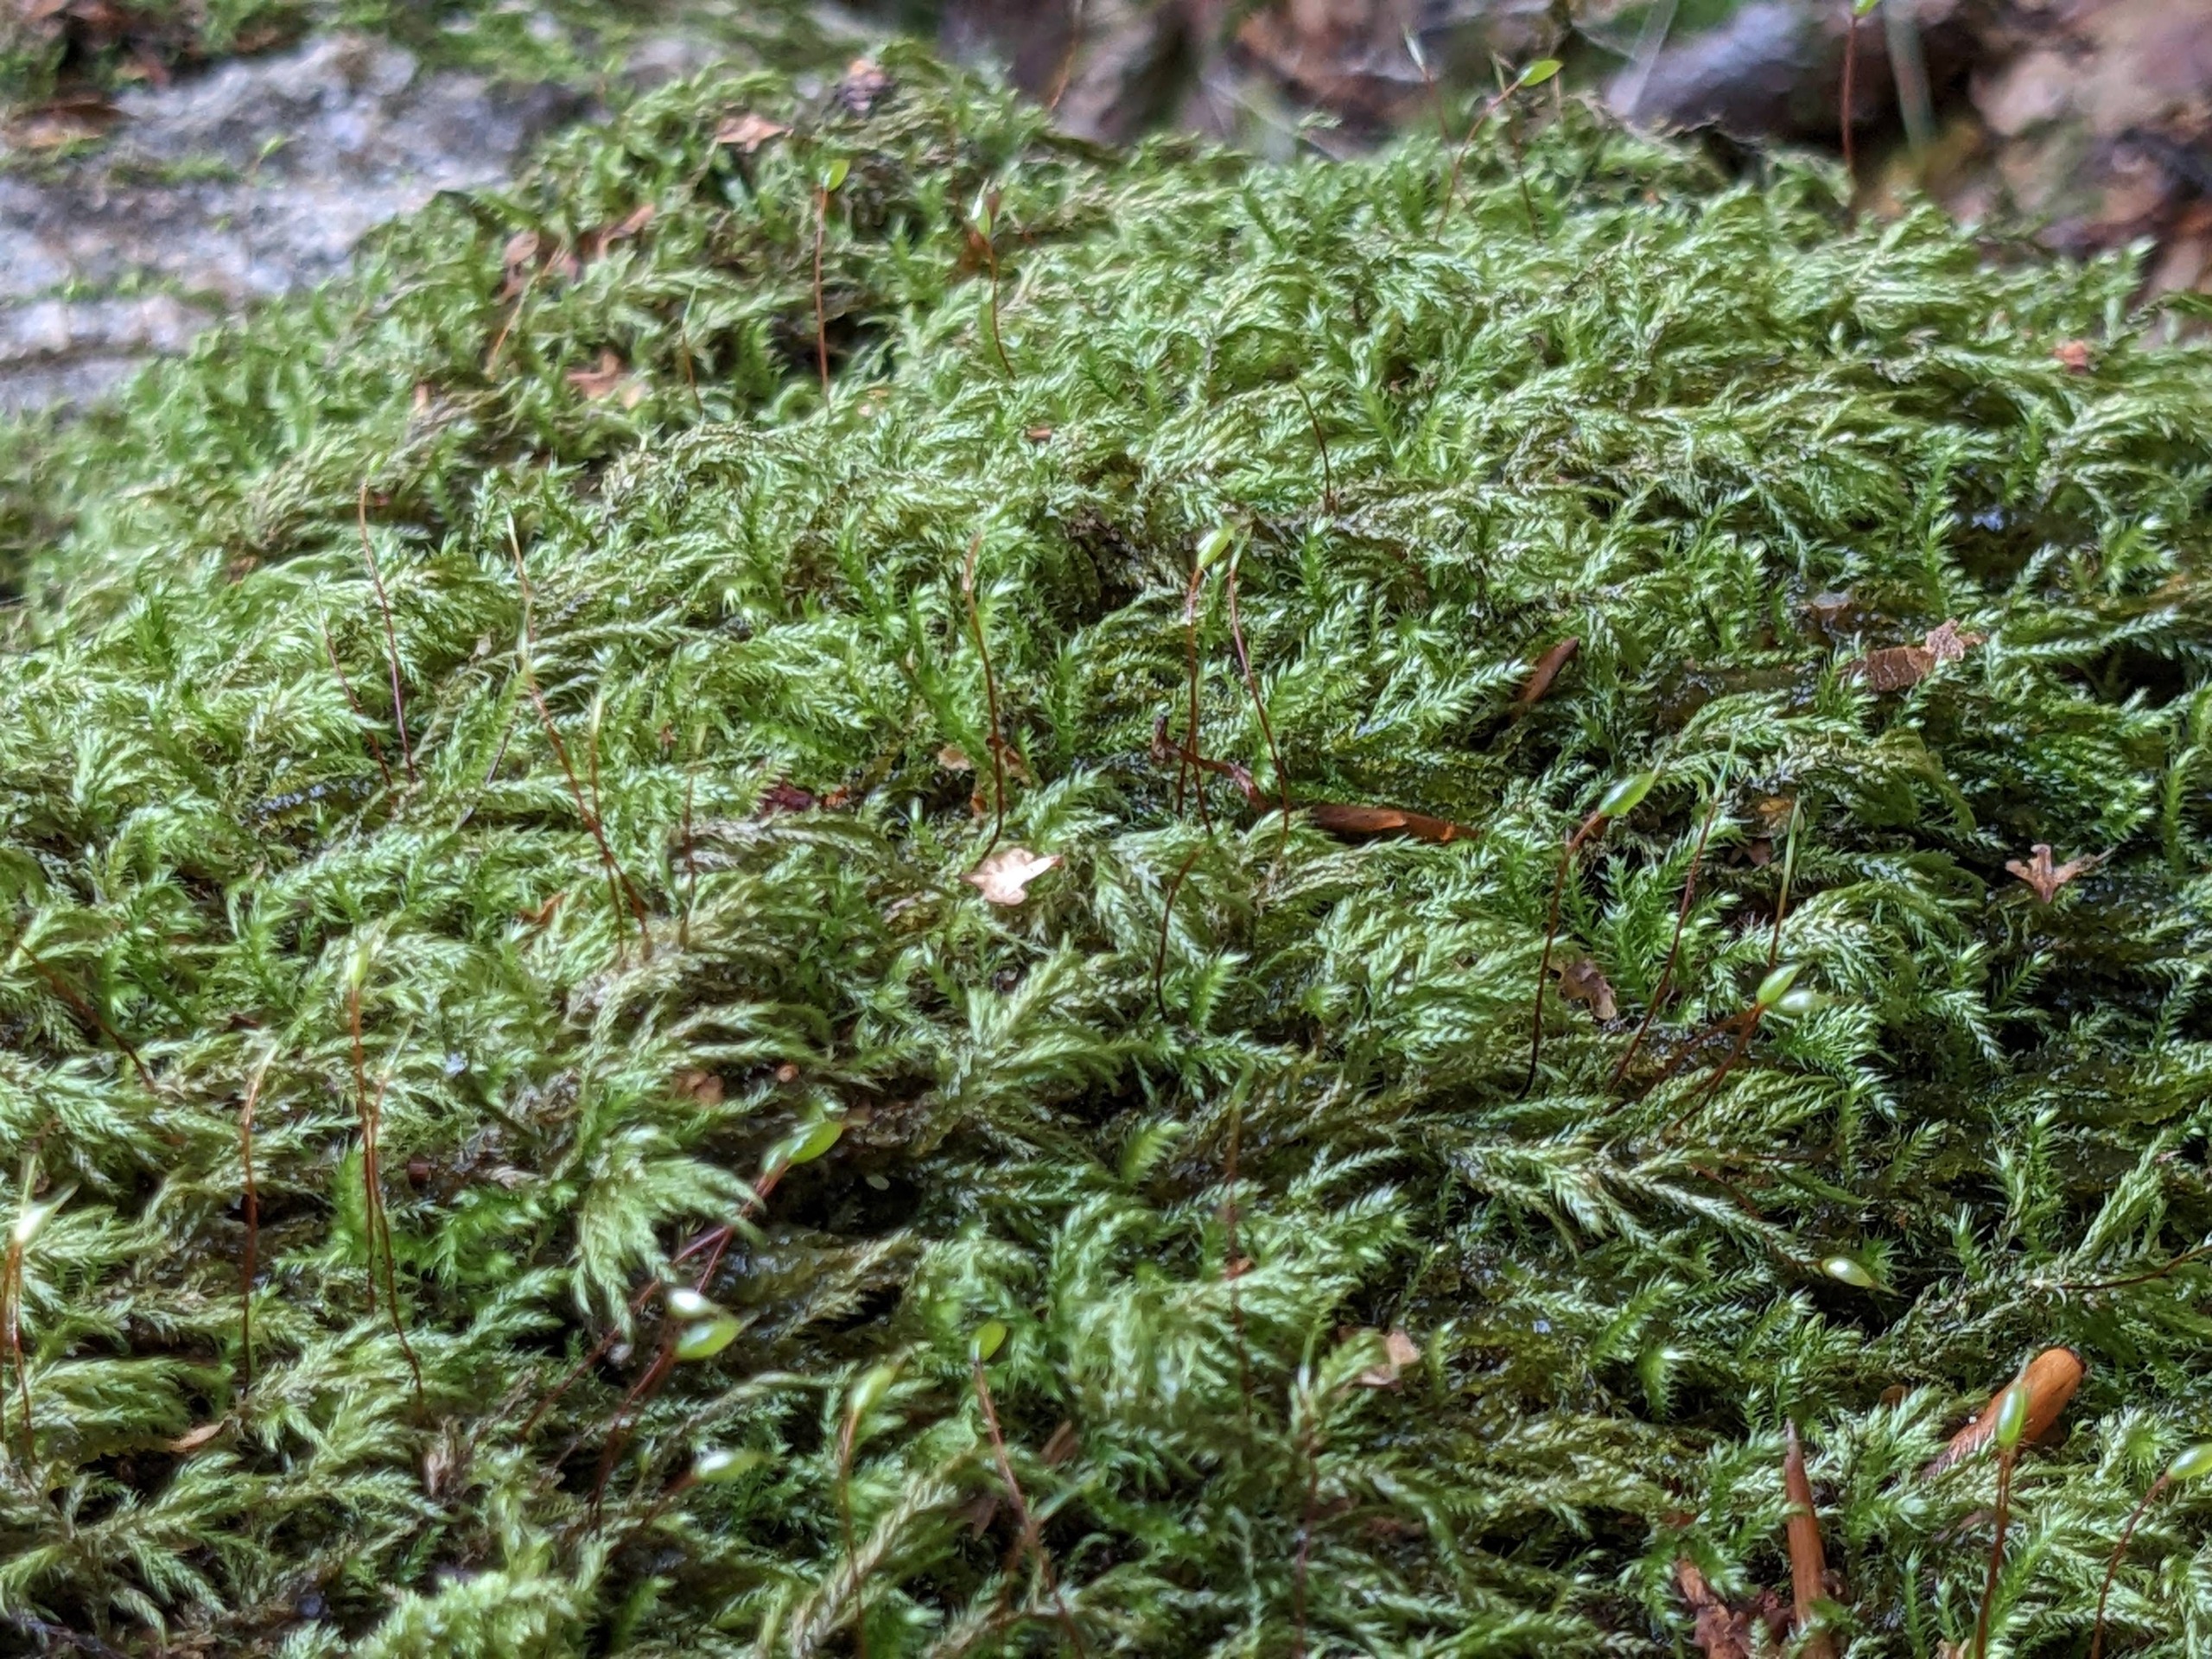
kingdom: Plantae
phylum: Bryophyta
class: Bryopsida
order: Hypnales
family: Lembophyllaceae
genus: Pseudisothecium
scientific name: Pseudisothecium myosuroides
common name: Slank stammemos
